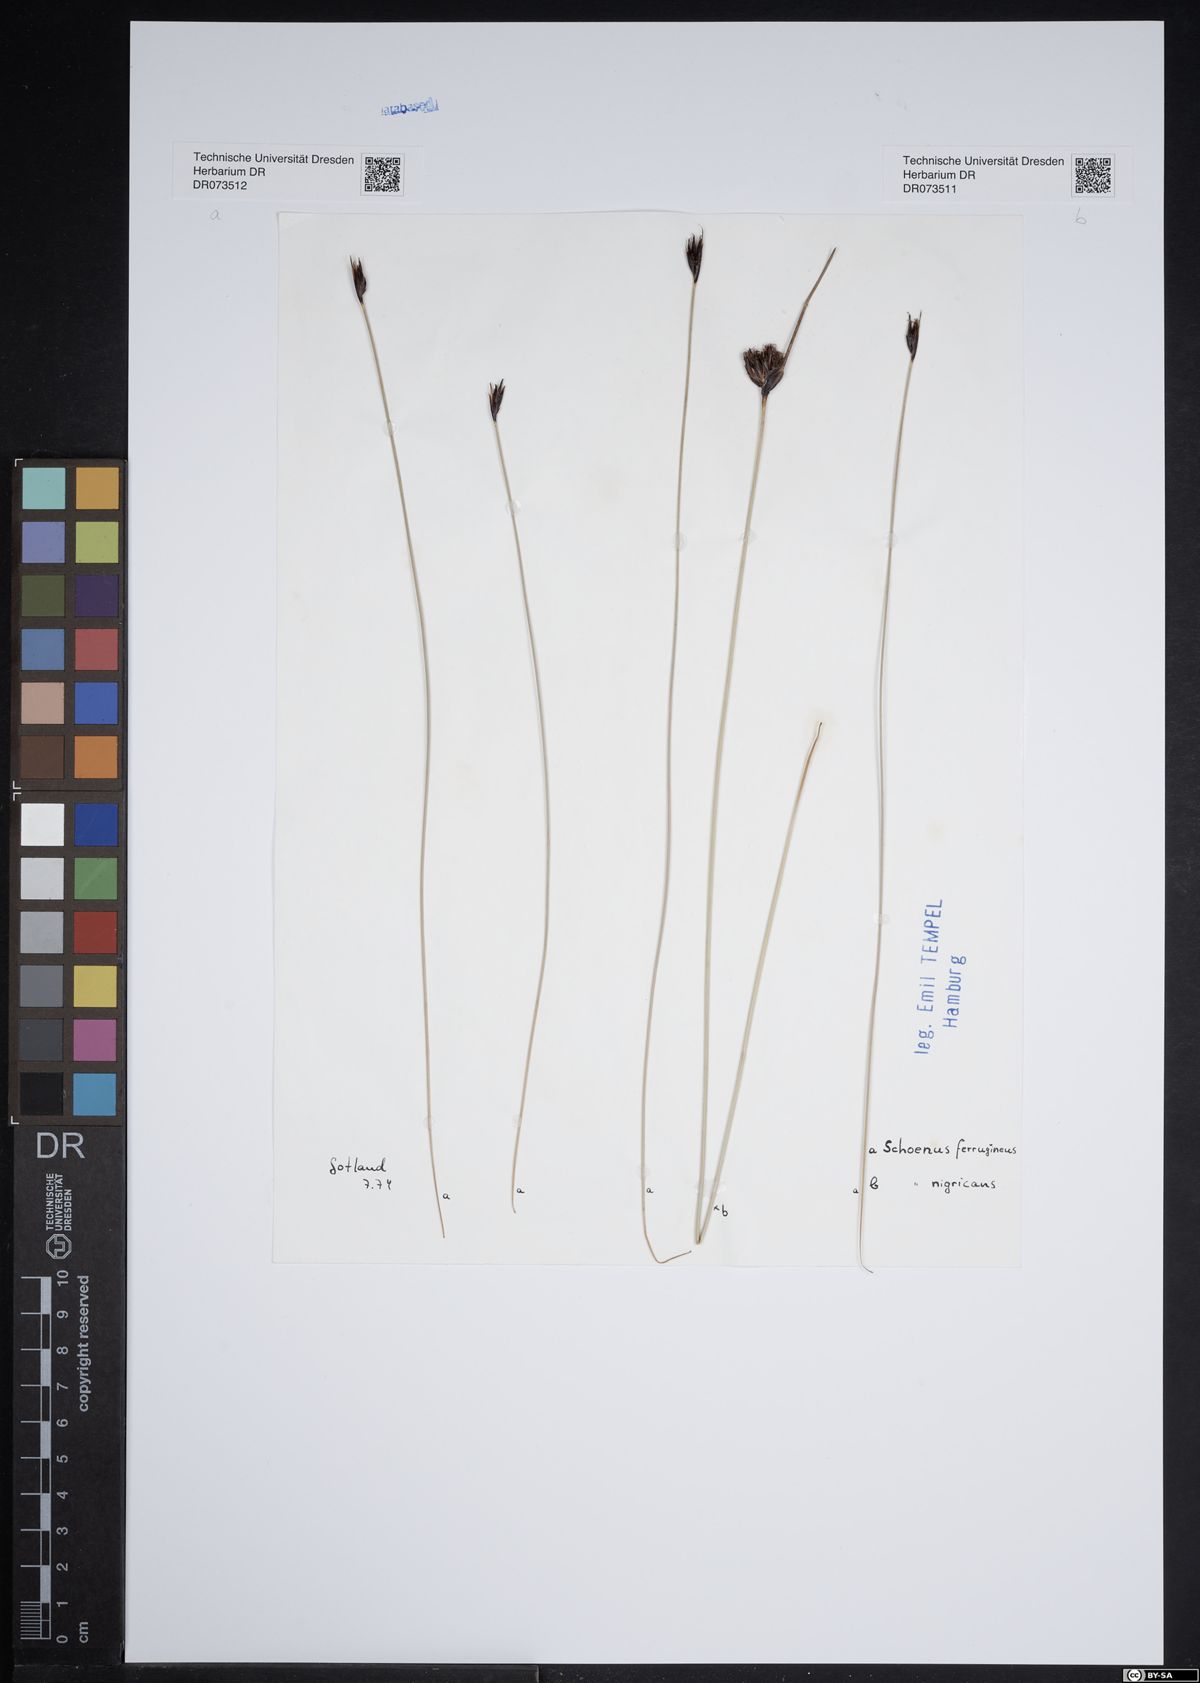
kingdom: Plantae
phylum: Tracheophyta
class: Liliopsida
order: Poales
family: Cyperaceae
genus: Schoenus
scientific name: Schoenus nigricans
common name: Black bog-rush
